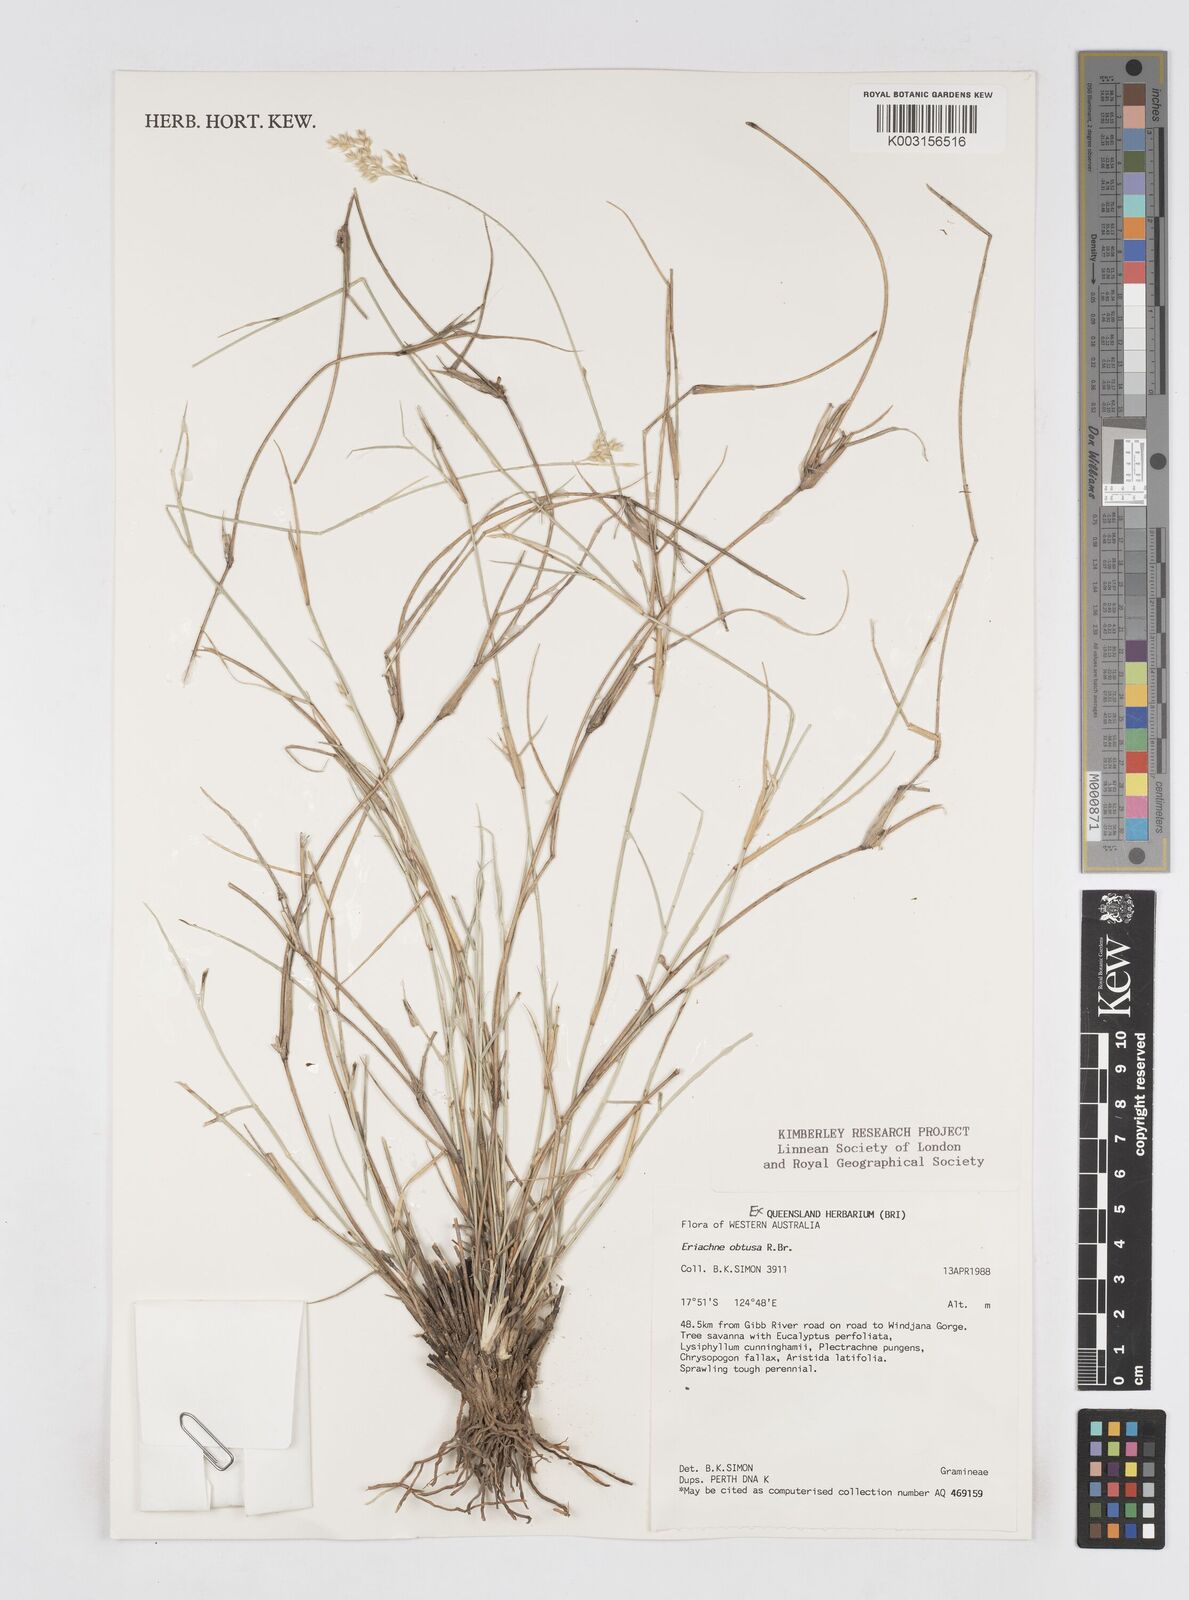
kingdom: Plantae
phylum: Tracheophyta
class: Liliopsida
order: Poales
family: Poaceae
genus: Eriachne
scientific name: Eriachne obtusa
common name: Northern wanderrie grass
